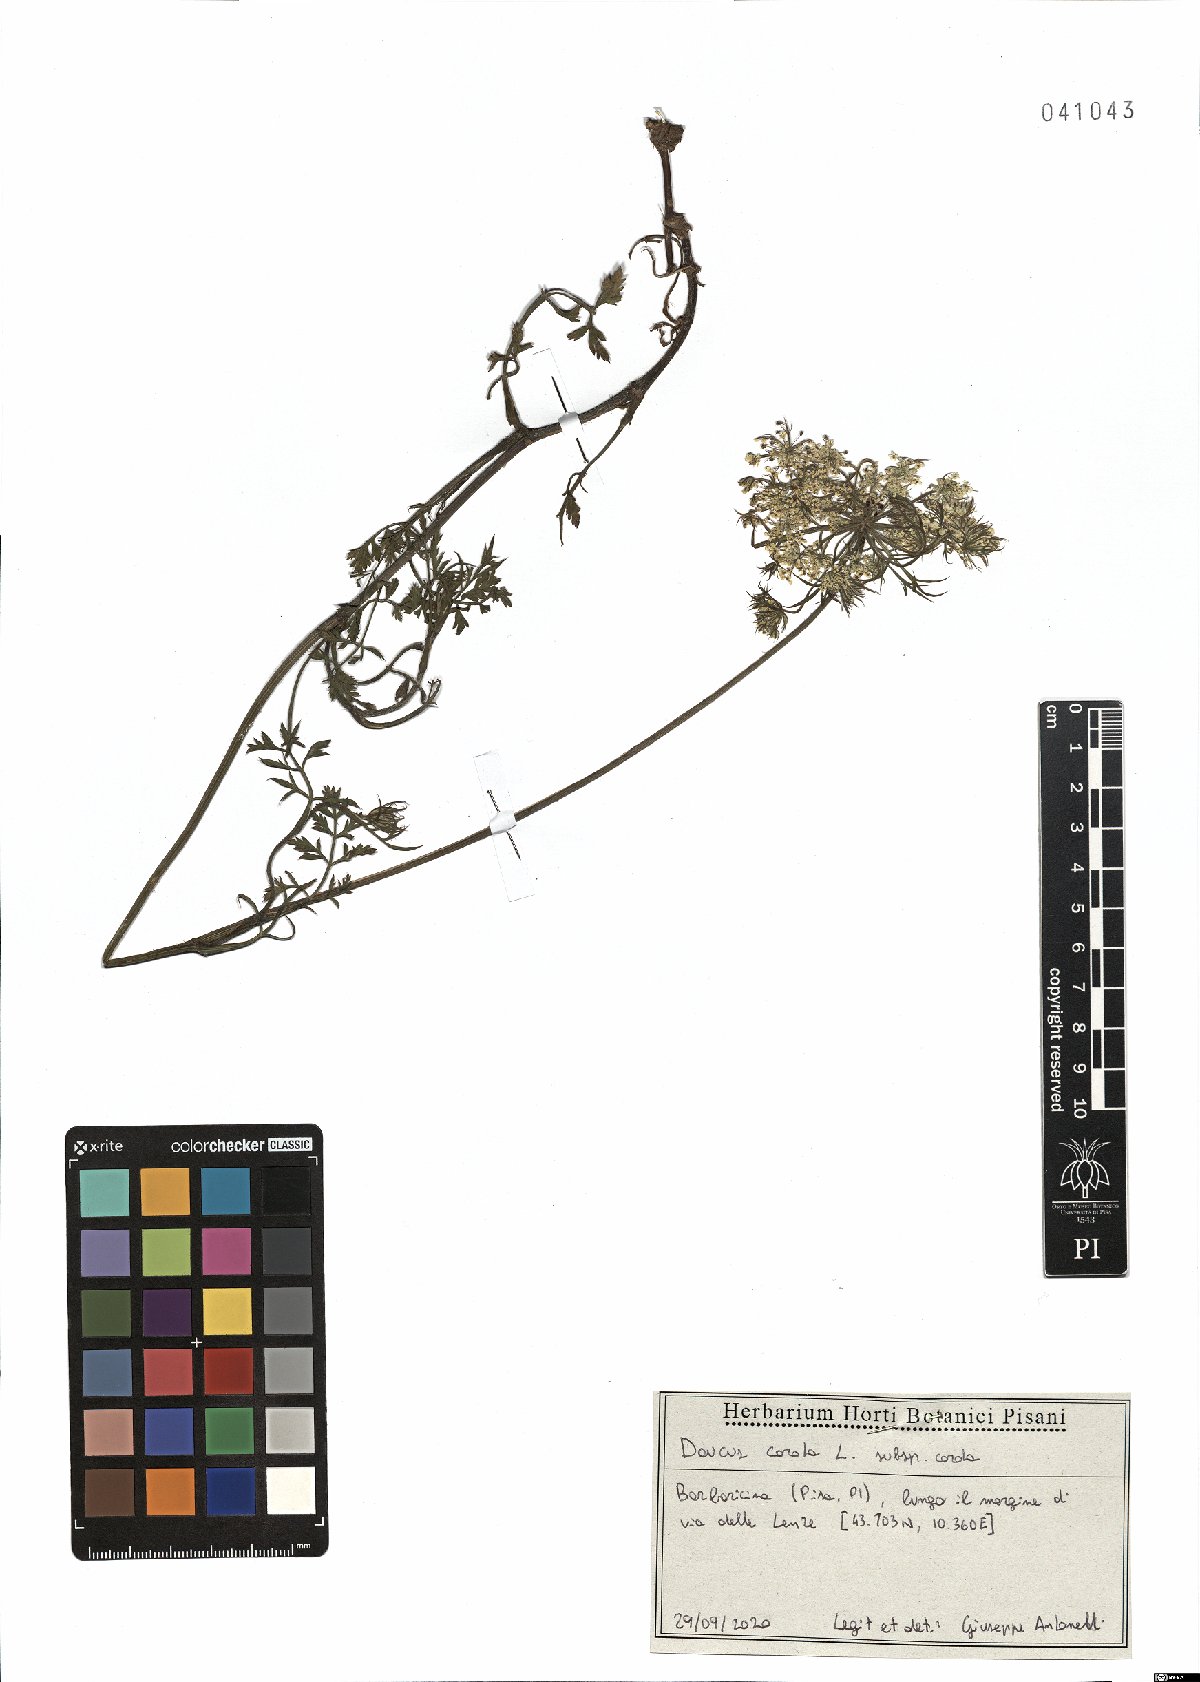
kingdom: Plantae
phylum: Tracheophyta
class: Magnoliopsida
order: Apiales
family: Apiaceae
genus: Daucus
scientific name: Daucus carota
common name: Wild carrot
